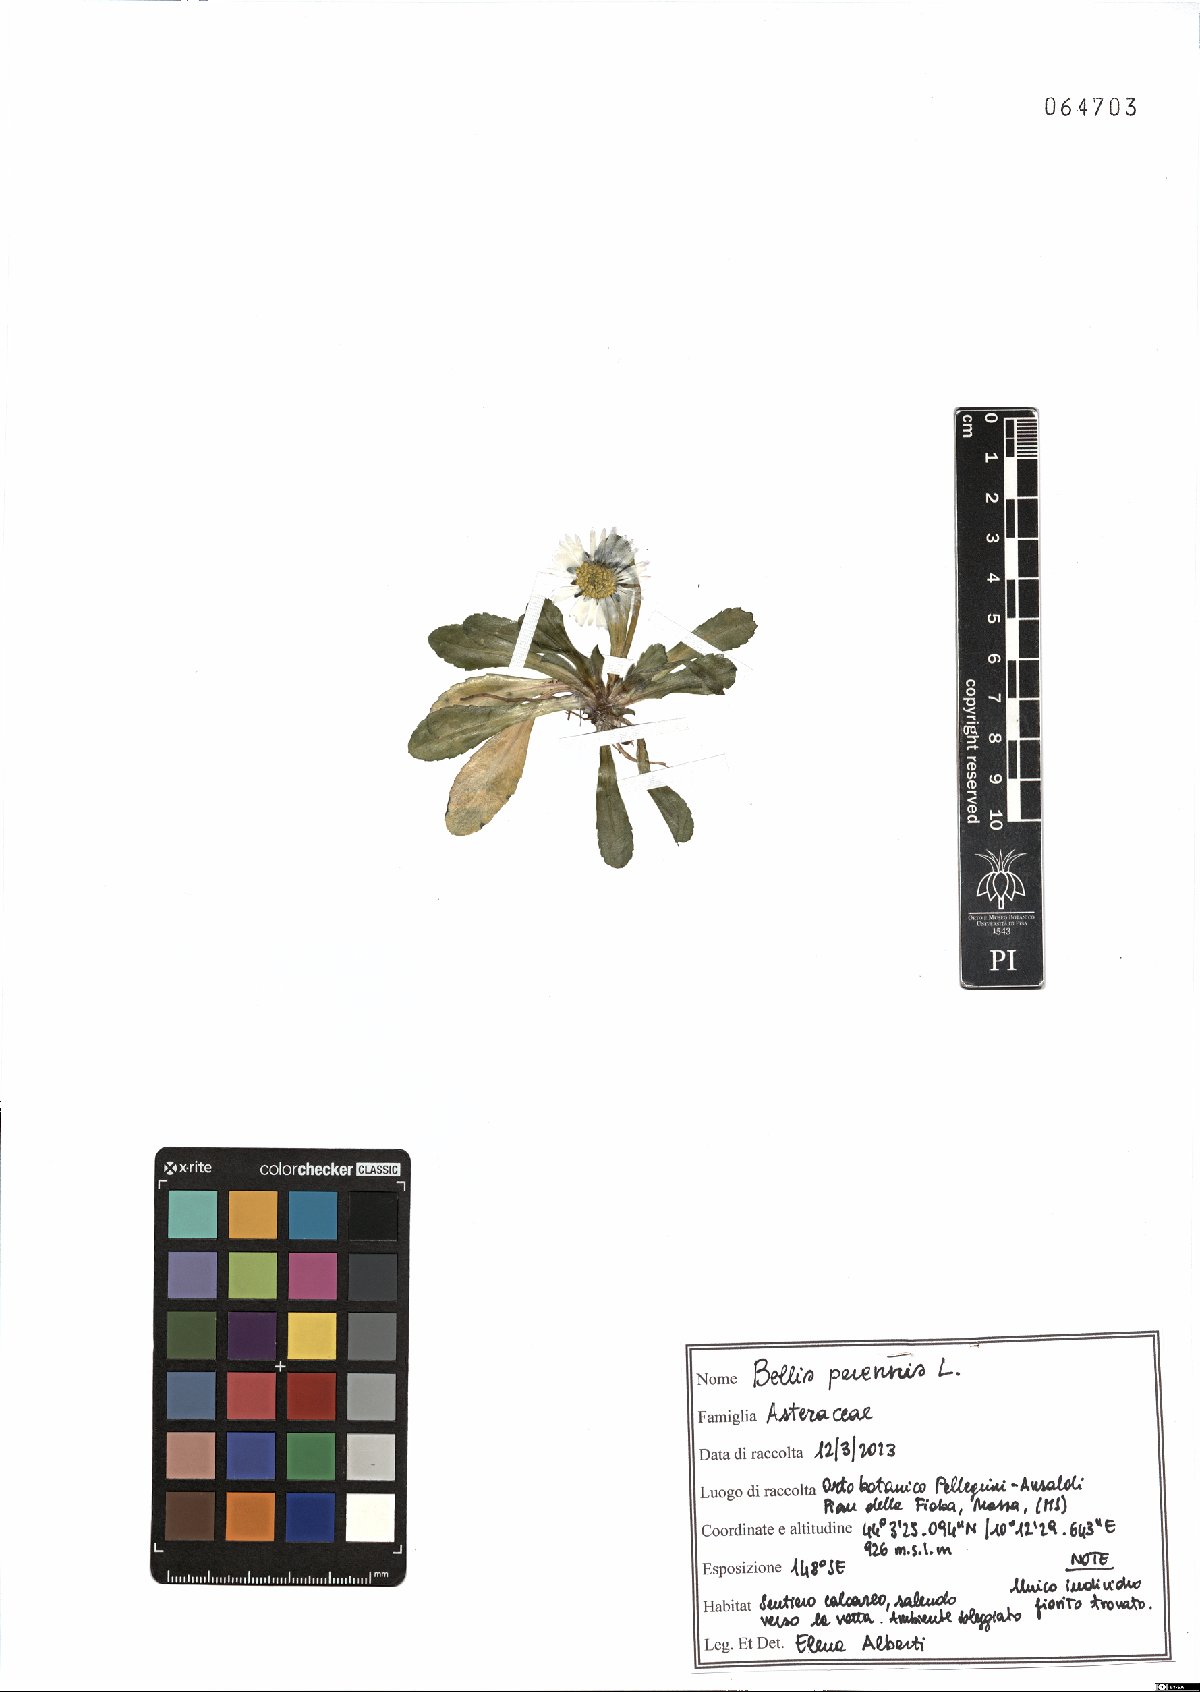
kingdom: Plantae
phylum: Tracheophyta
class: Magnoliopsida
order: Asterales
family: Asteraceae
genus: Bellis
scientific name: Bellis perennis
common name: Lawndaisy
